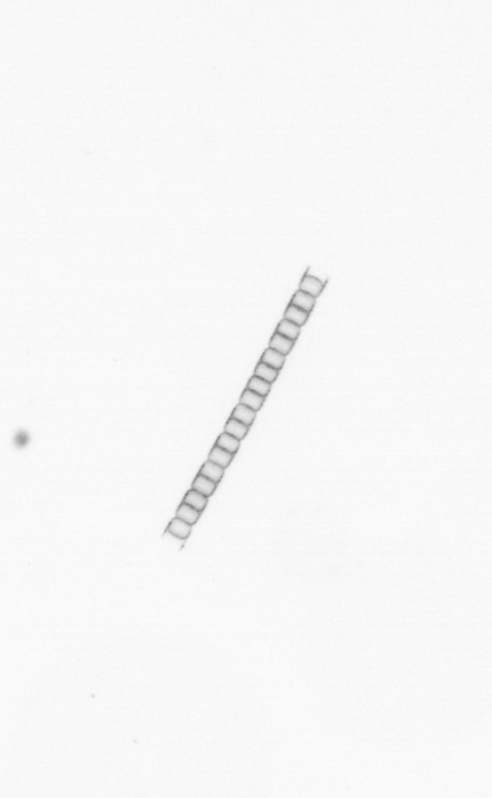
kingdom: Chromista
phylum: Ochrophyta
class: Bacillariophyceae
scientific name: Bacillariophyceae
